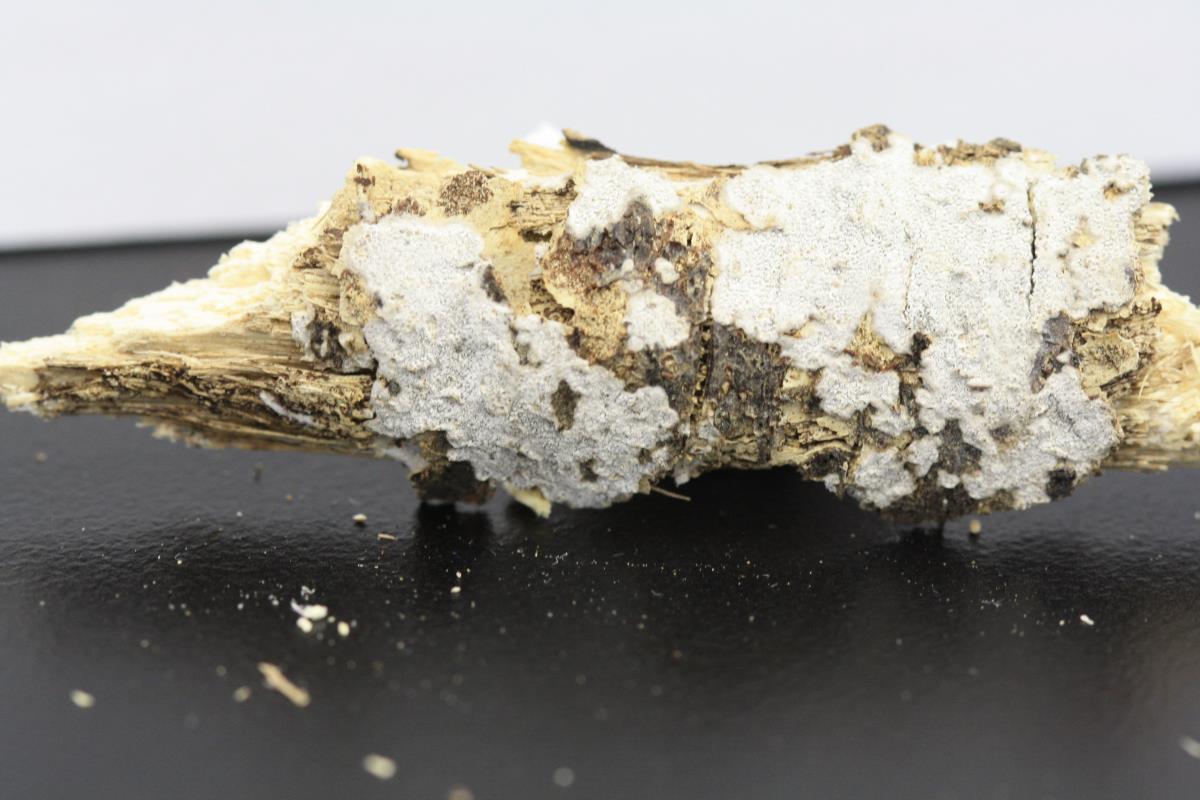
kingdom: Fungi
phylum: Basidiomycota
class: Agaricomycetes
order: Agaricales
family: Pleurotaceae
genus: Resupinatus
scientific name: Resupinatus huia
